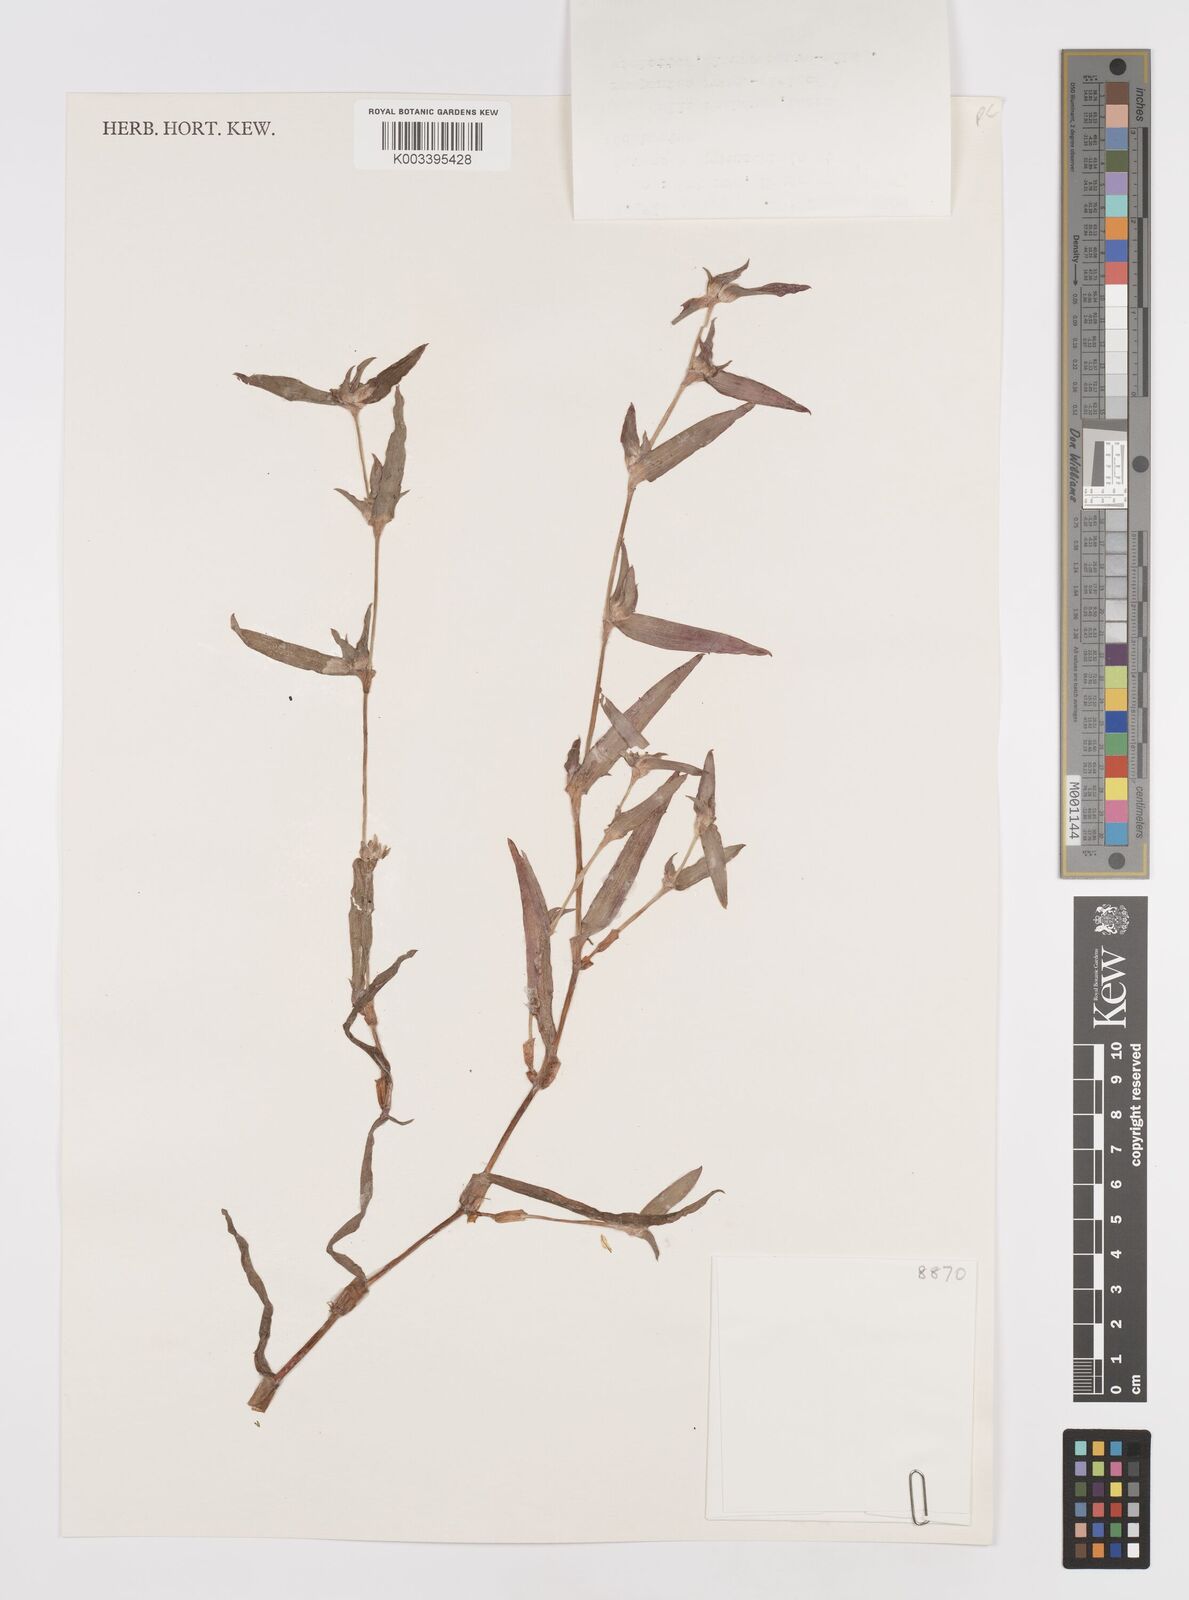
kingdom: Plantae
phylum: Tracheophyta
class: Liliopsida
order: Commelinales
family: Commelinaceae
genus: Cyanotis
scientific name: Cyanotis lanata
